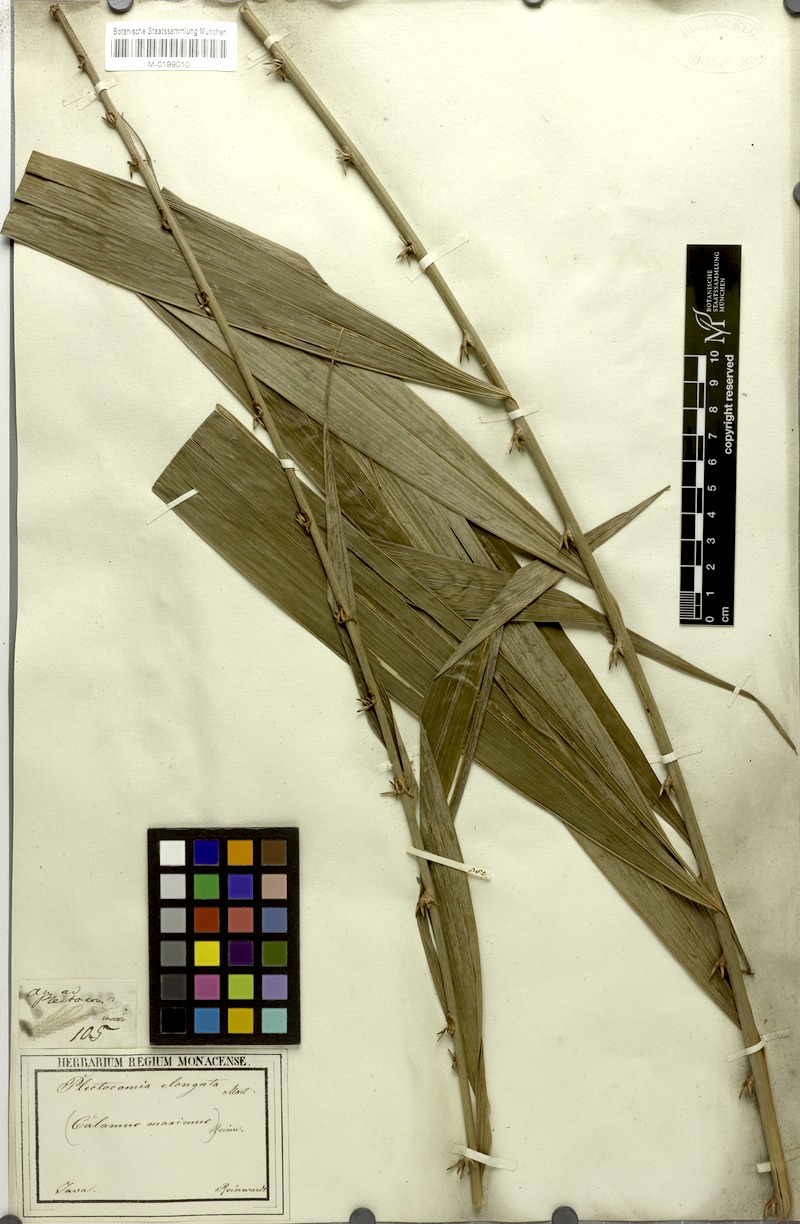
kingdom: Plantae
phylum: Tracheophyta
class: Liliopsida
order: Arecales
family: Arecaceae
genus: Plectocomia
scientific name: Plectocomia elongata
